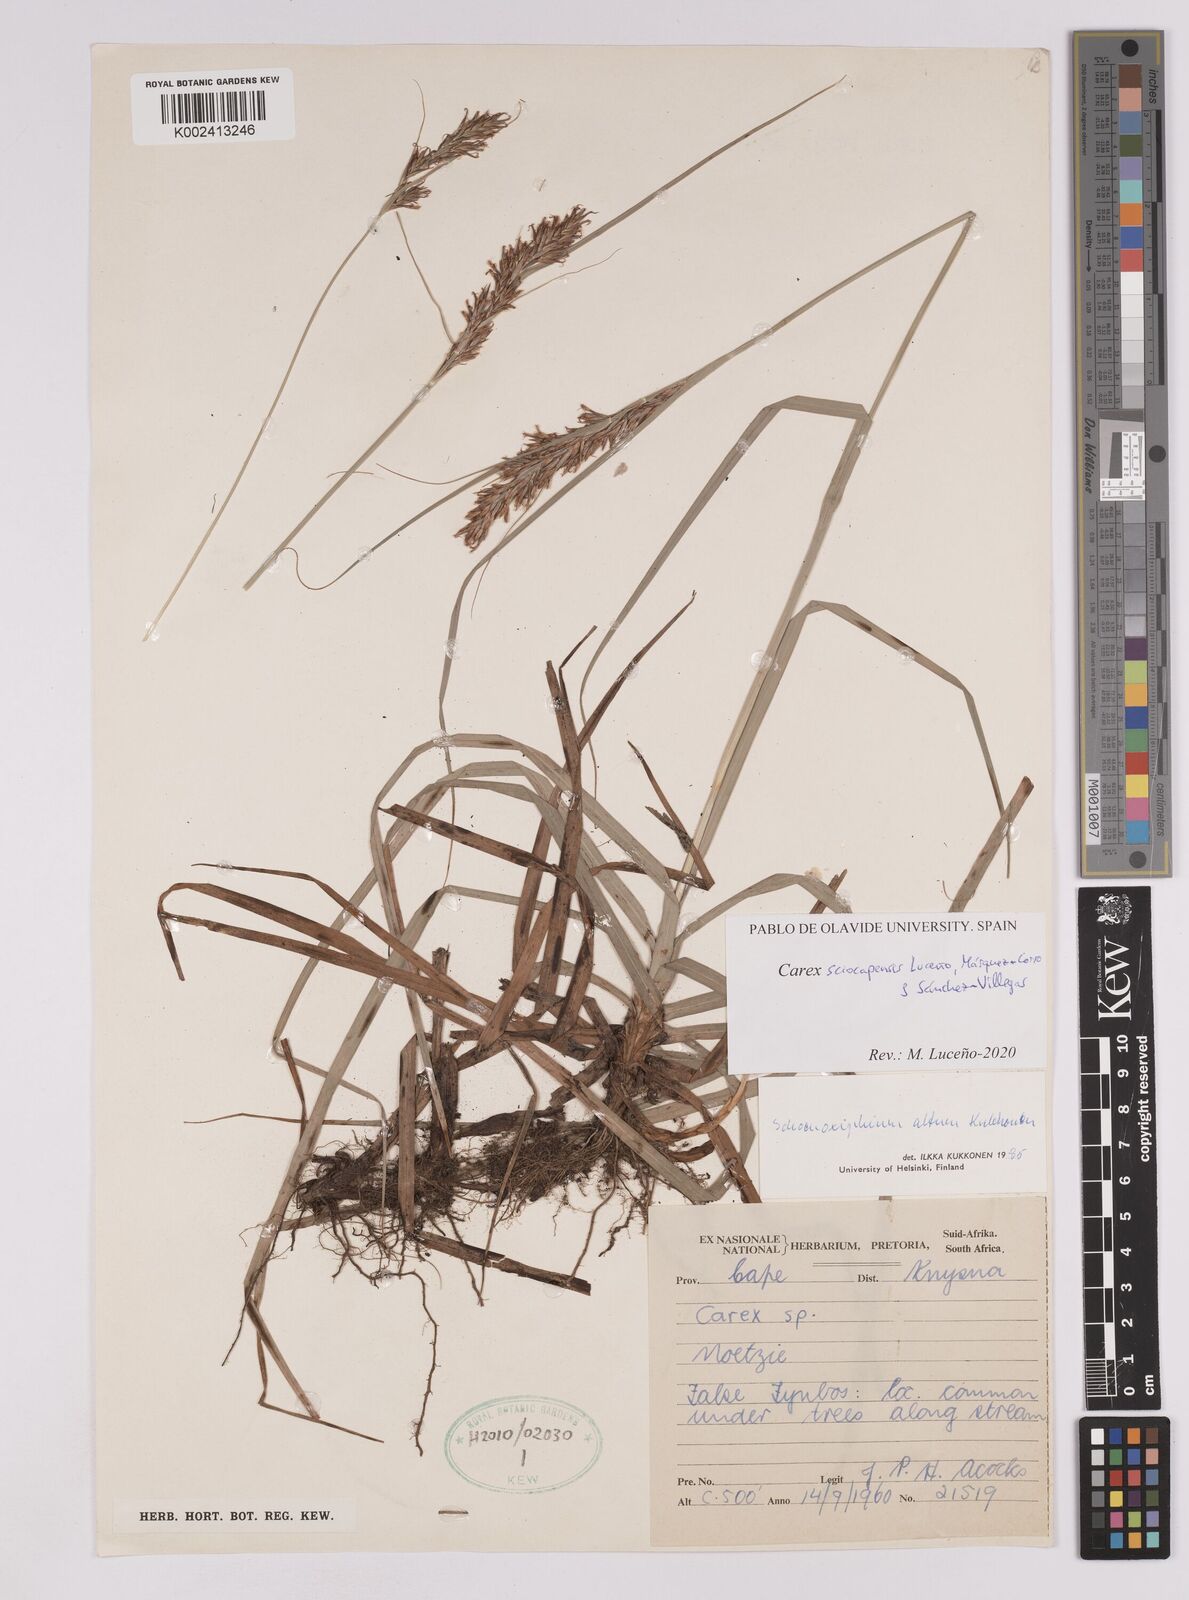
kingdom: Plantae
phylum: Tracheophyta
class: Liliopsida
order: Poales
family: Cyperaceae
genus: Carex
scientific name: Carex lancea
